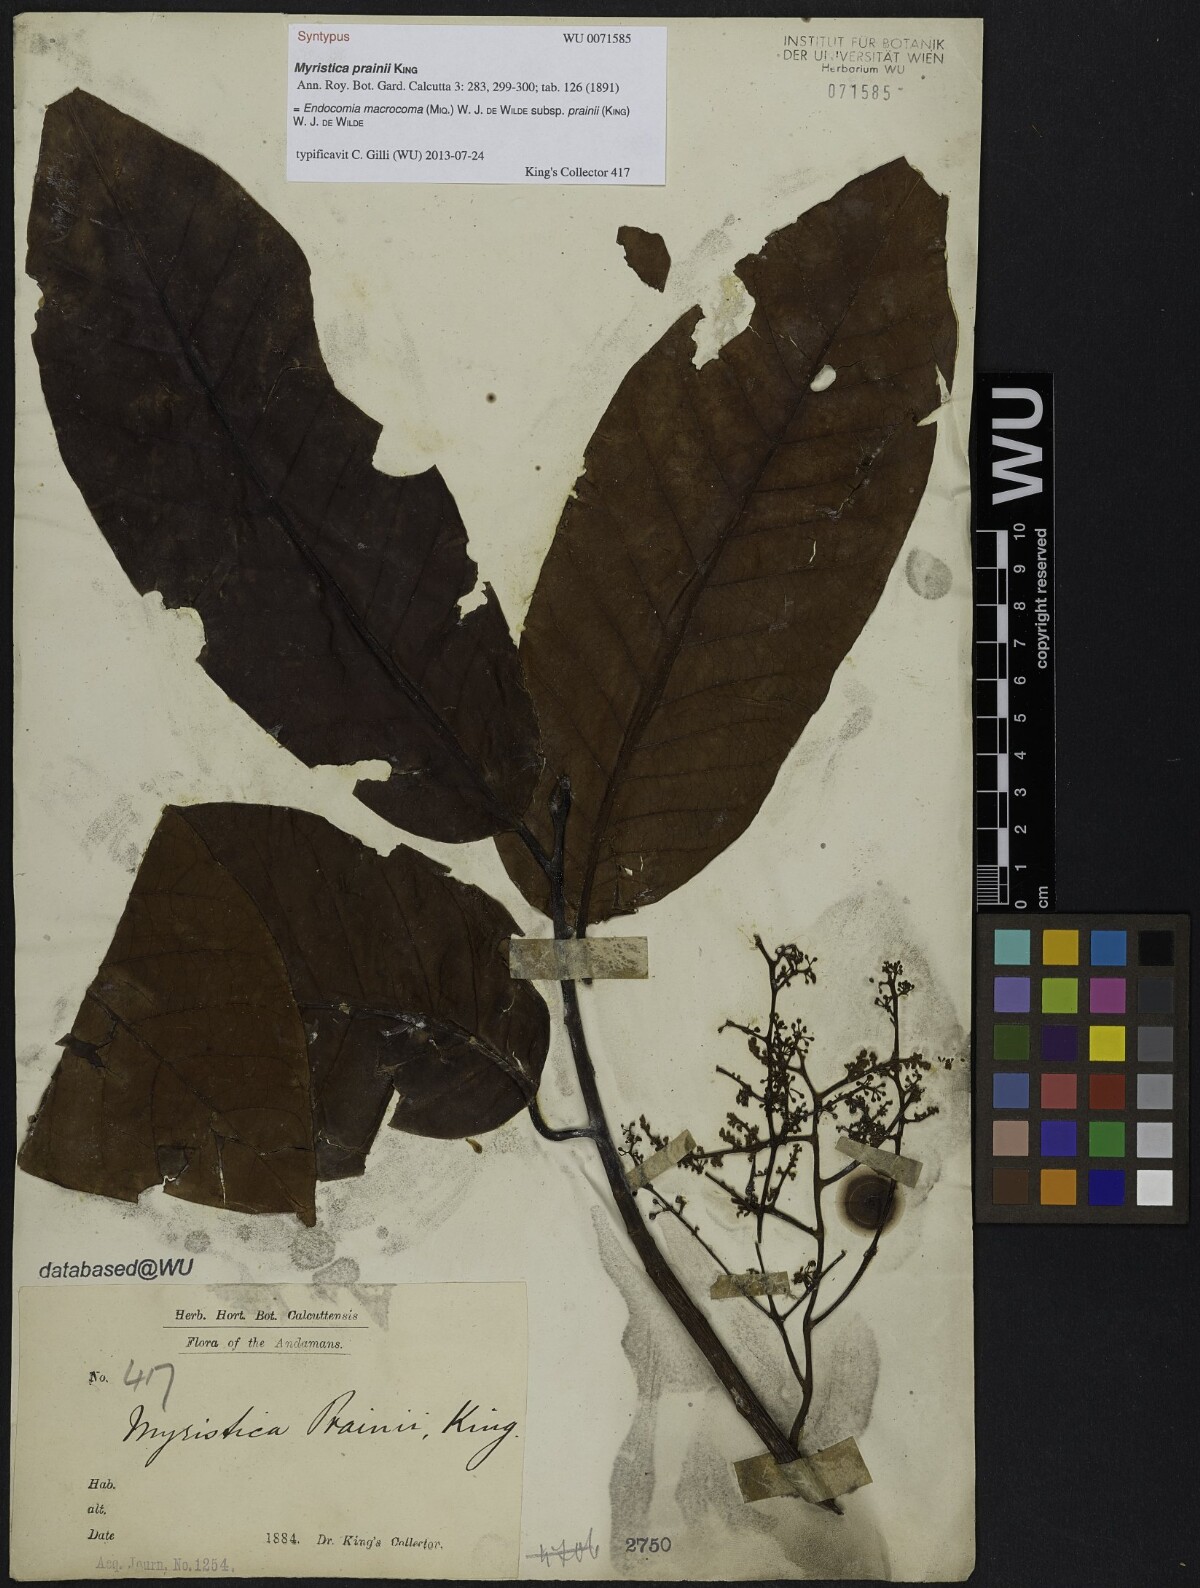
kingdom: Plantae
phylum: Tracheophyta
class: Magnoliopsida
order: Magnoliales
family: Myristicaceae
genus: Endocomia
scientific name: Endocomia macrocoma
